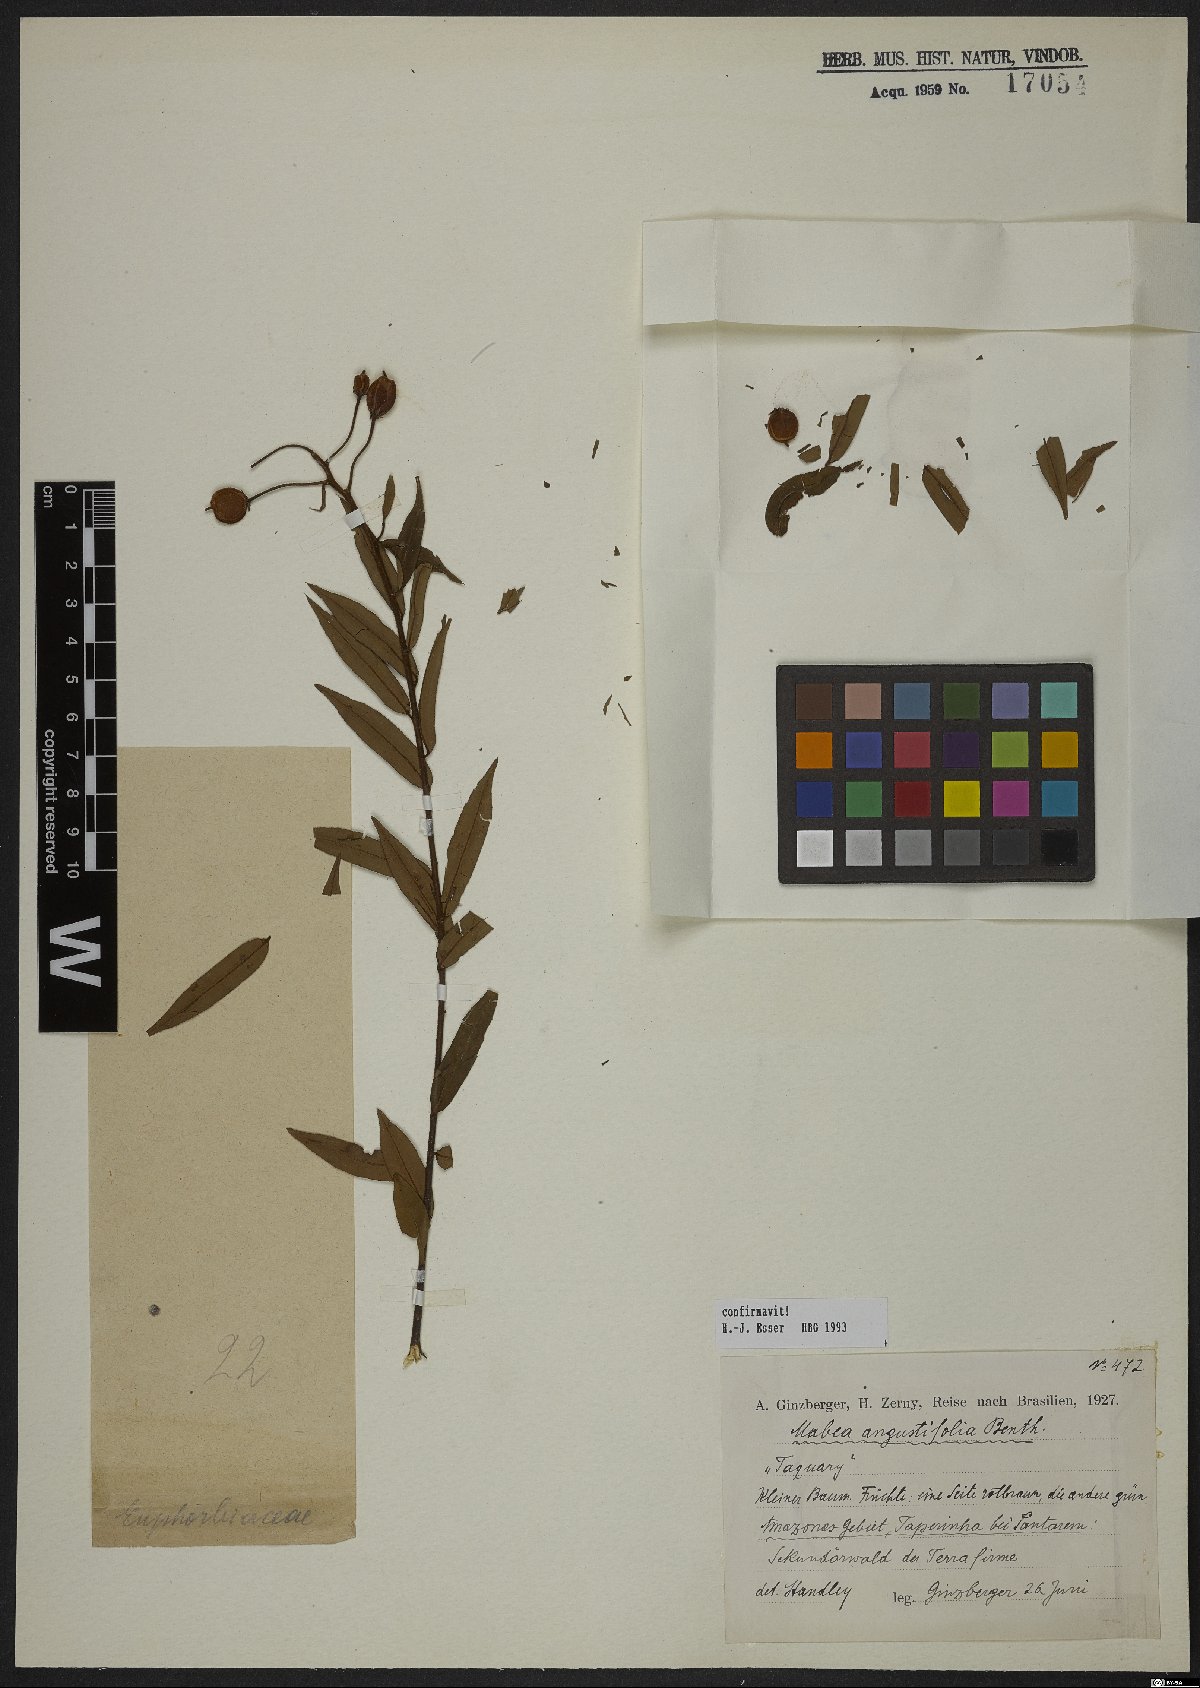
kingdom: Plantae
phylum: Tracheophyta
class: Magnoliopsida
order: Malpighiales
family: Euphorbiaceae
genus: Mabea
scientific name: Mabea angustifolia
